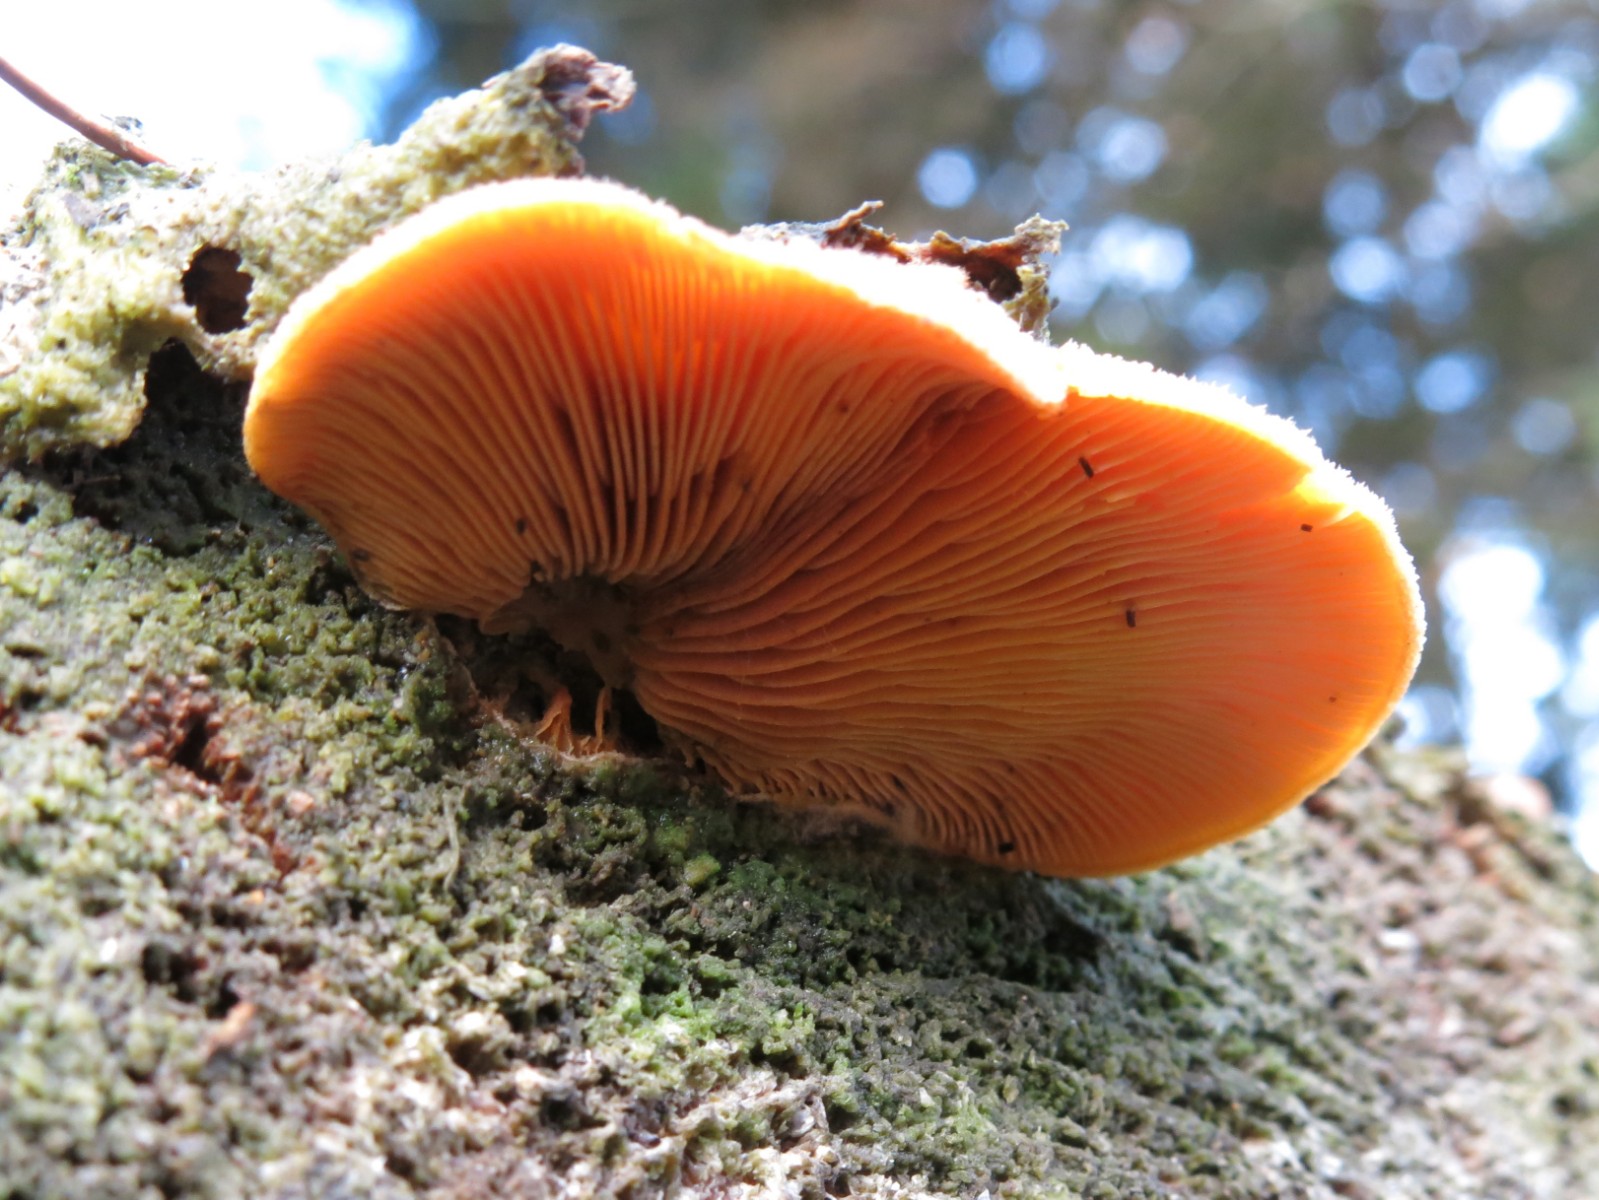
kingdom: Fungi
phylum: Basidiomycota
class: Agaricomycetes
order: Agaricales
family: Phyllotopsidaceae
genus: Phyllotopsis
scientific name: Phyllotopsis nidulans
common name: okkerblad
